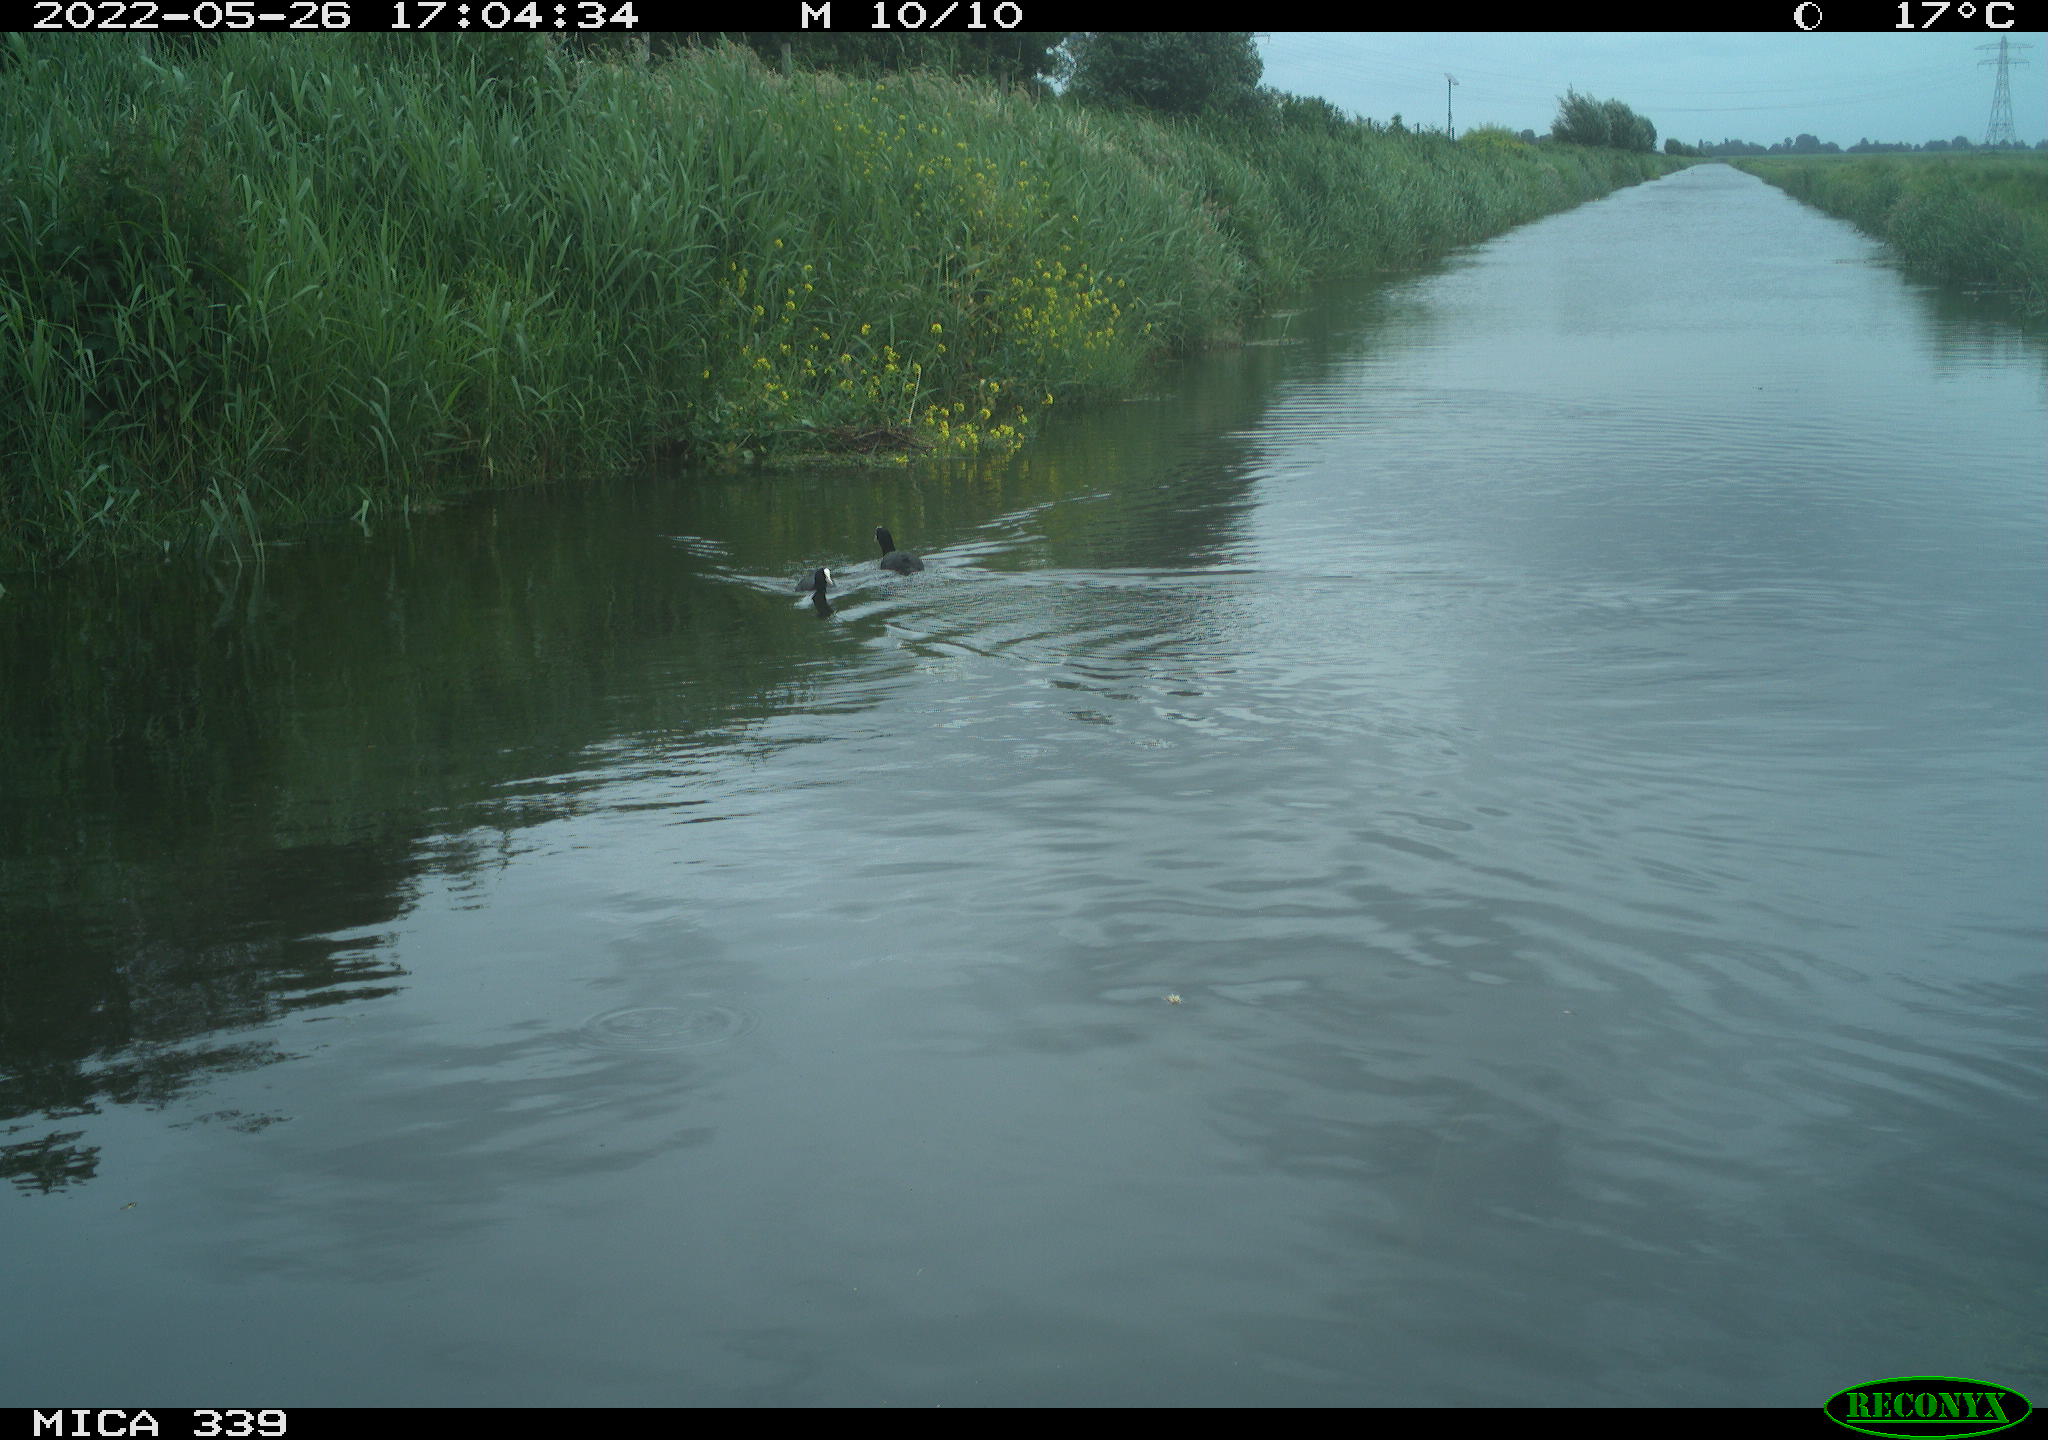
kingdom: Animalia
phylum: Chordata
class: Aves
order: Gruiformes
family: Rallidae
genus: Fulica
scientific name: Fulica atra
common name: Eurasian coot
